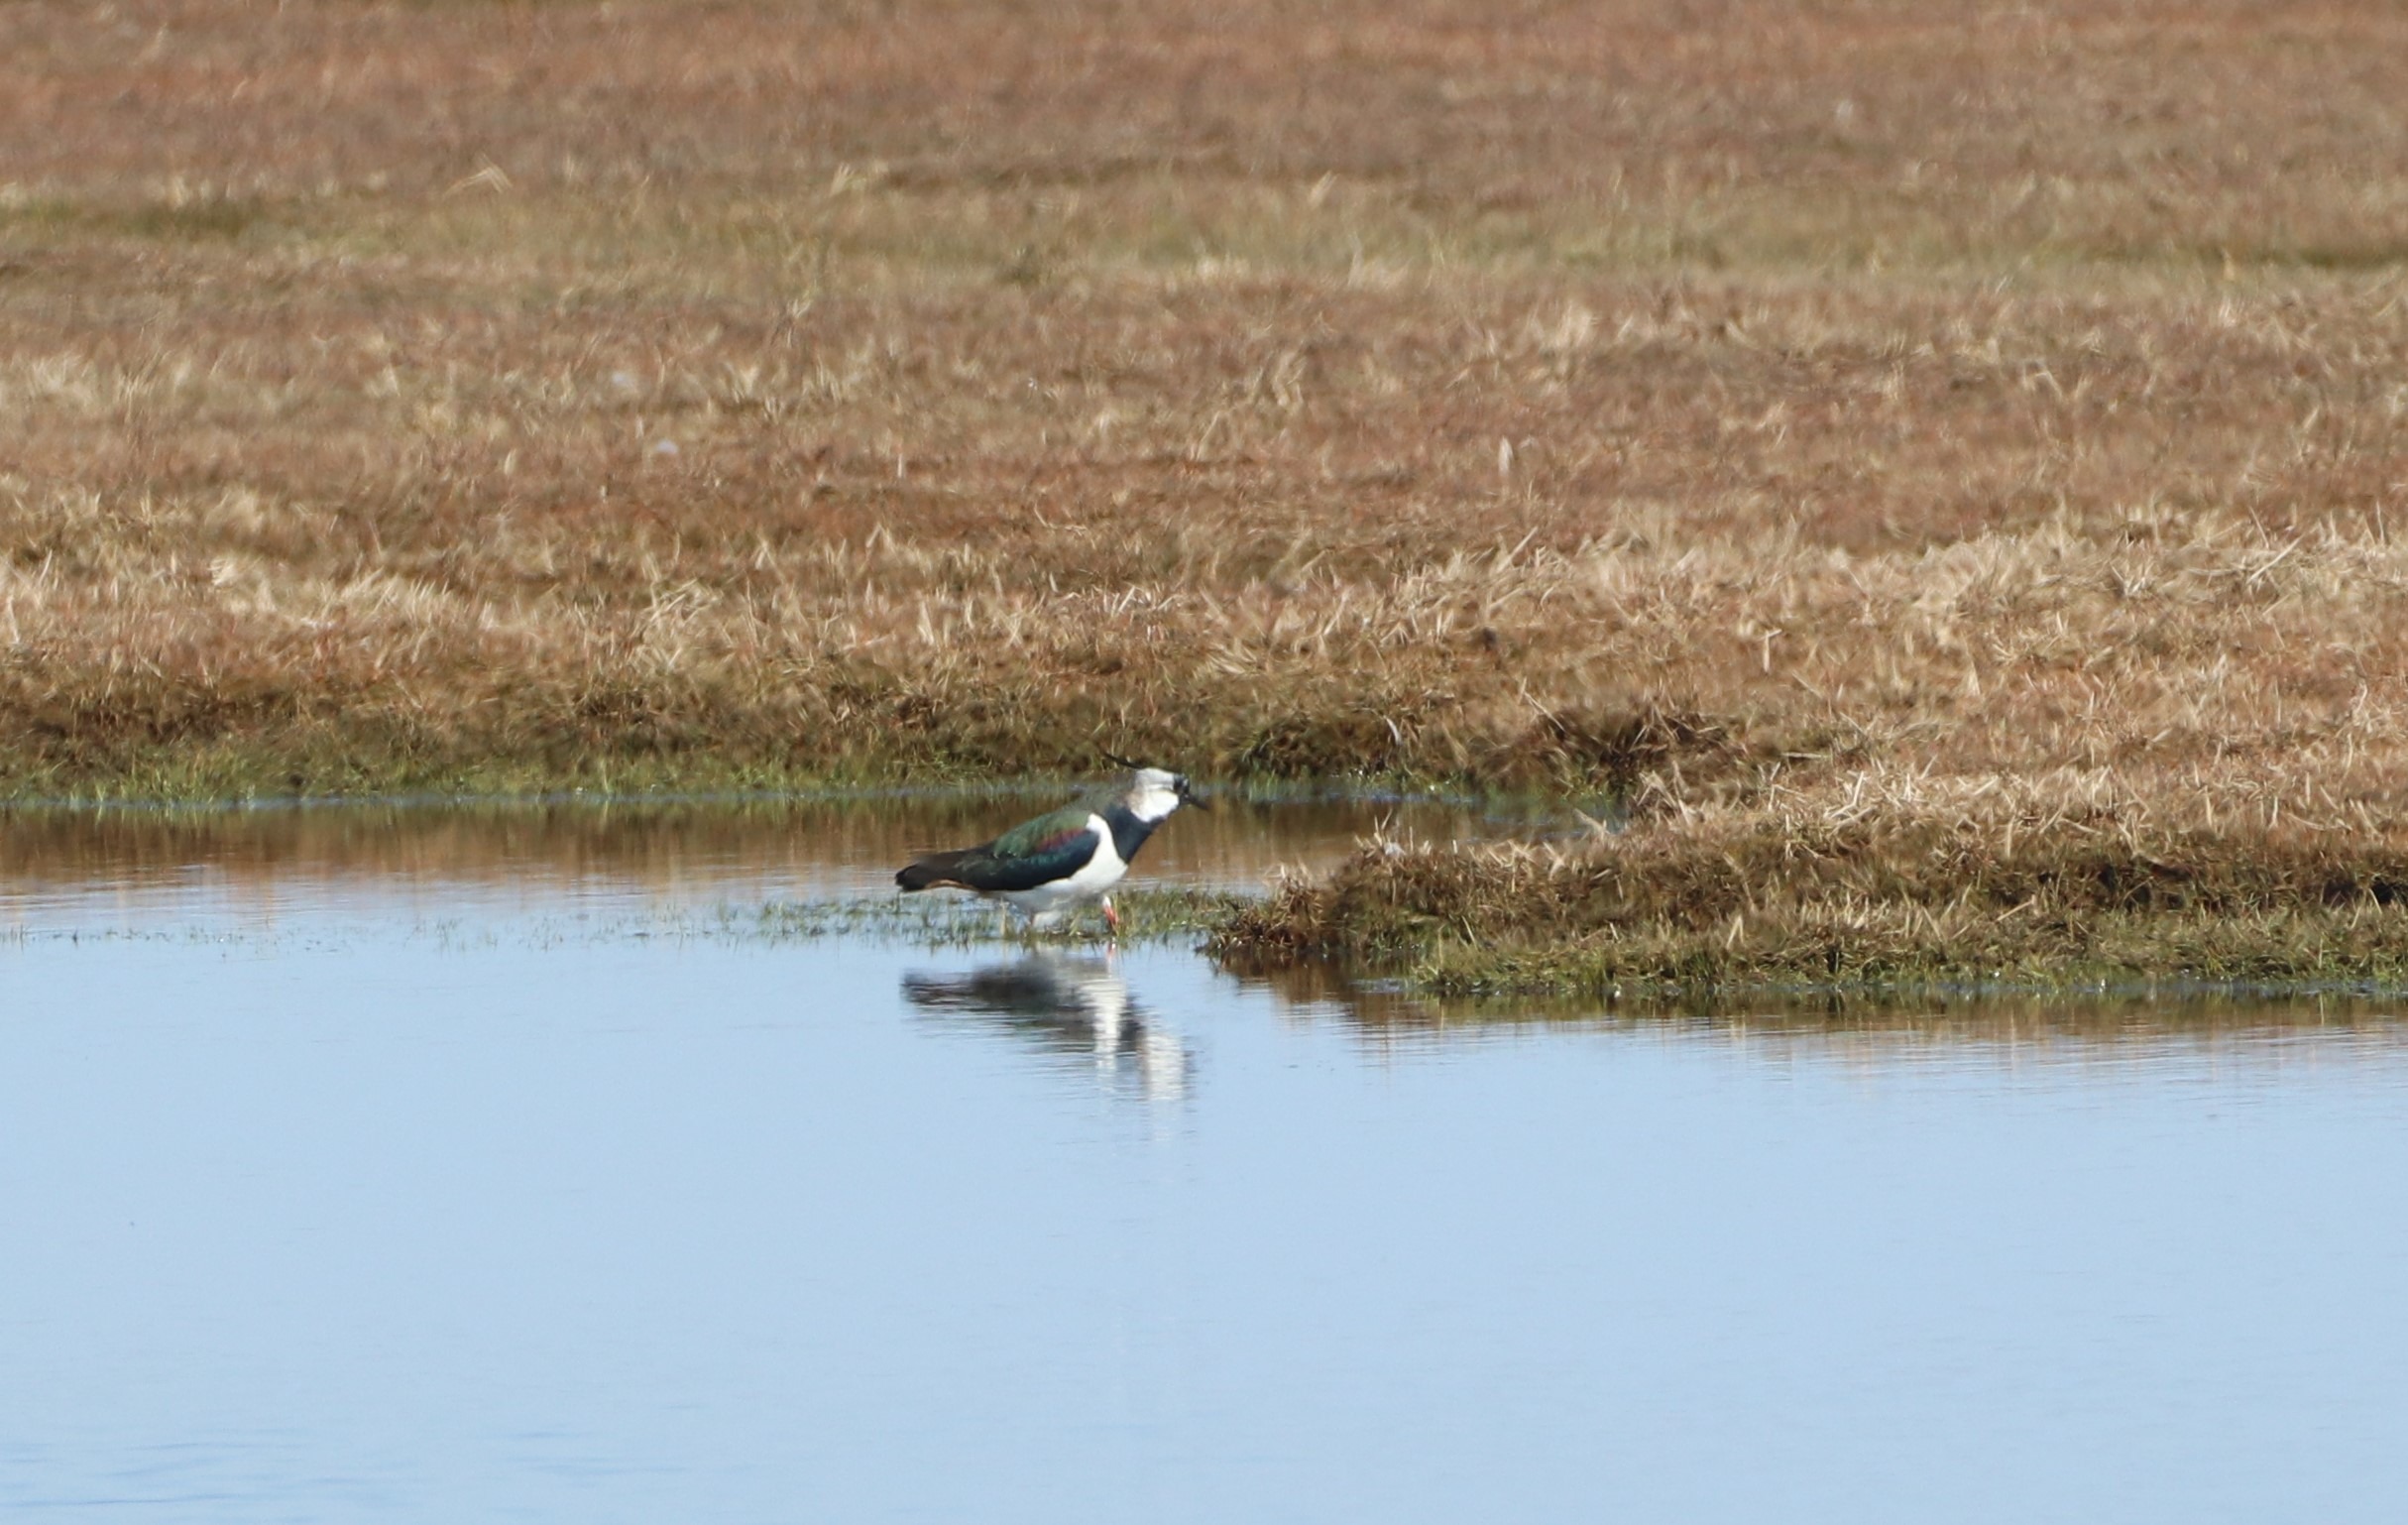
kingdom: Animalia
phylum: Chordata
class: Aves
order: Charadriiformes
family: Charadriidae
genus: Vanellus
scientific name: Vanellus vanellus
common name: Vibe
